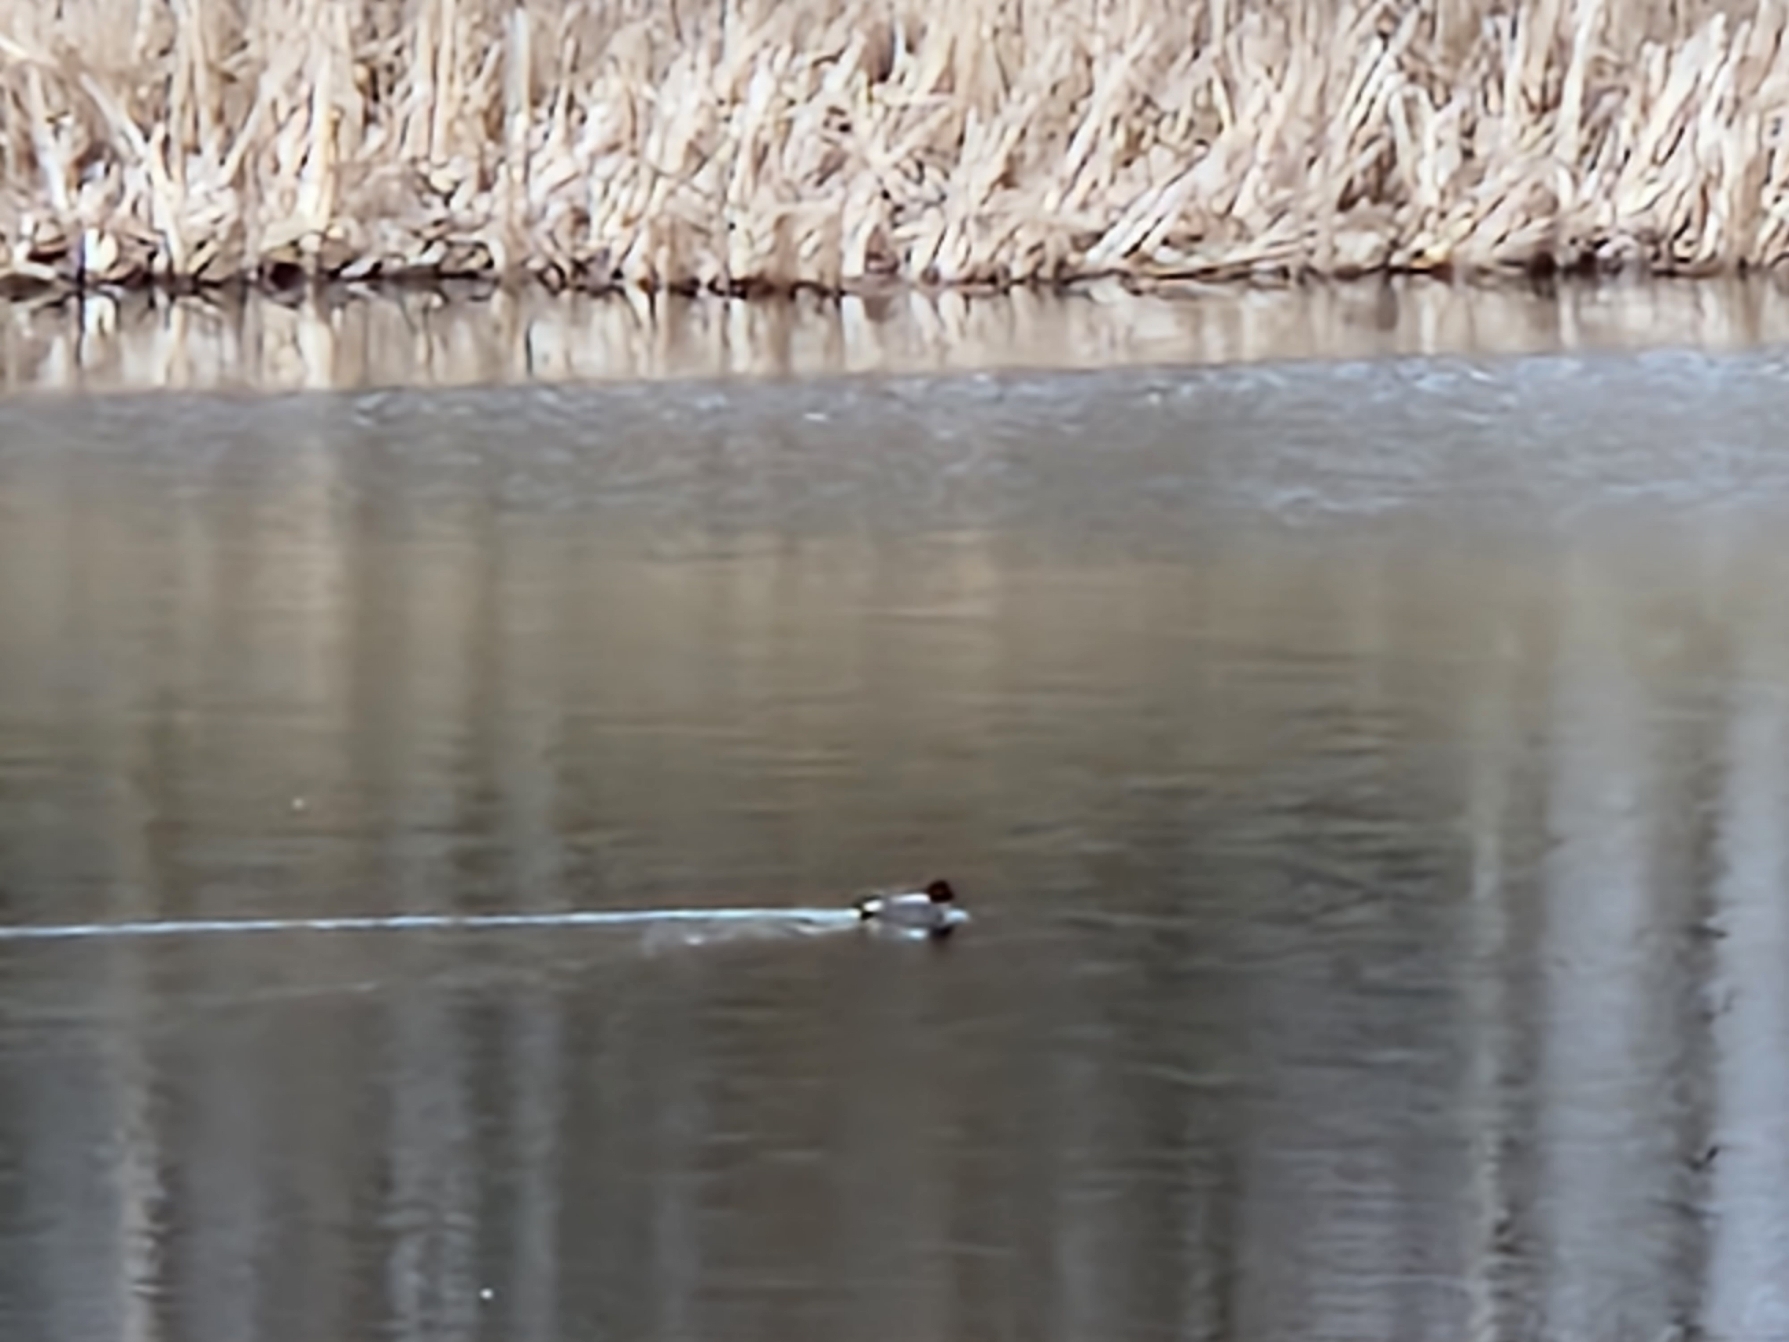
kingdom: Animalia
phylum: Chordata
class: Aves
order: Anseriformes
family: Anatidae
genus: Anas
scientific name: Anas crecca
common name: Krikand
